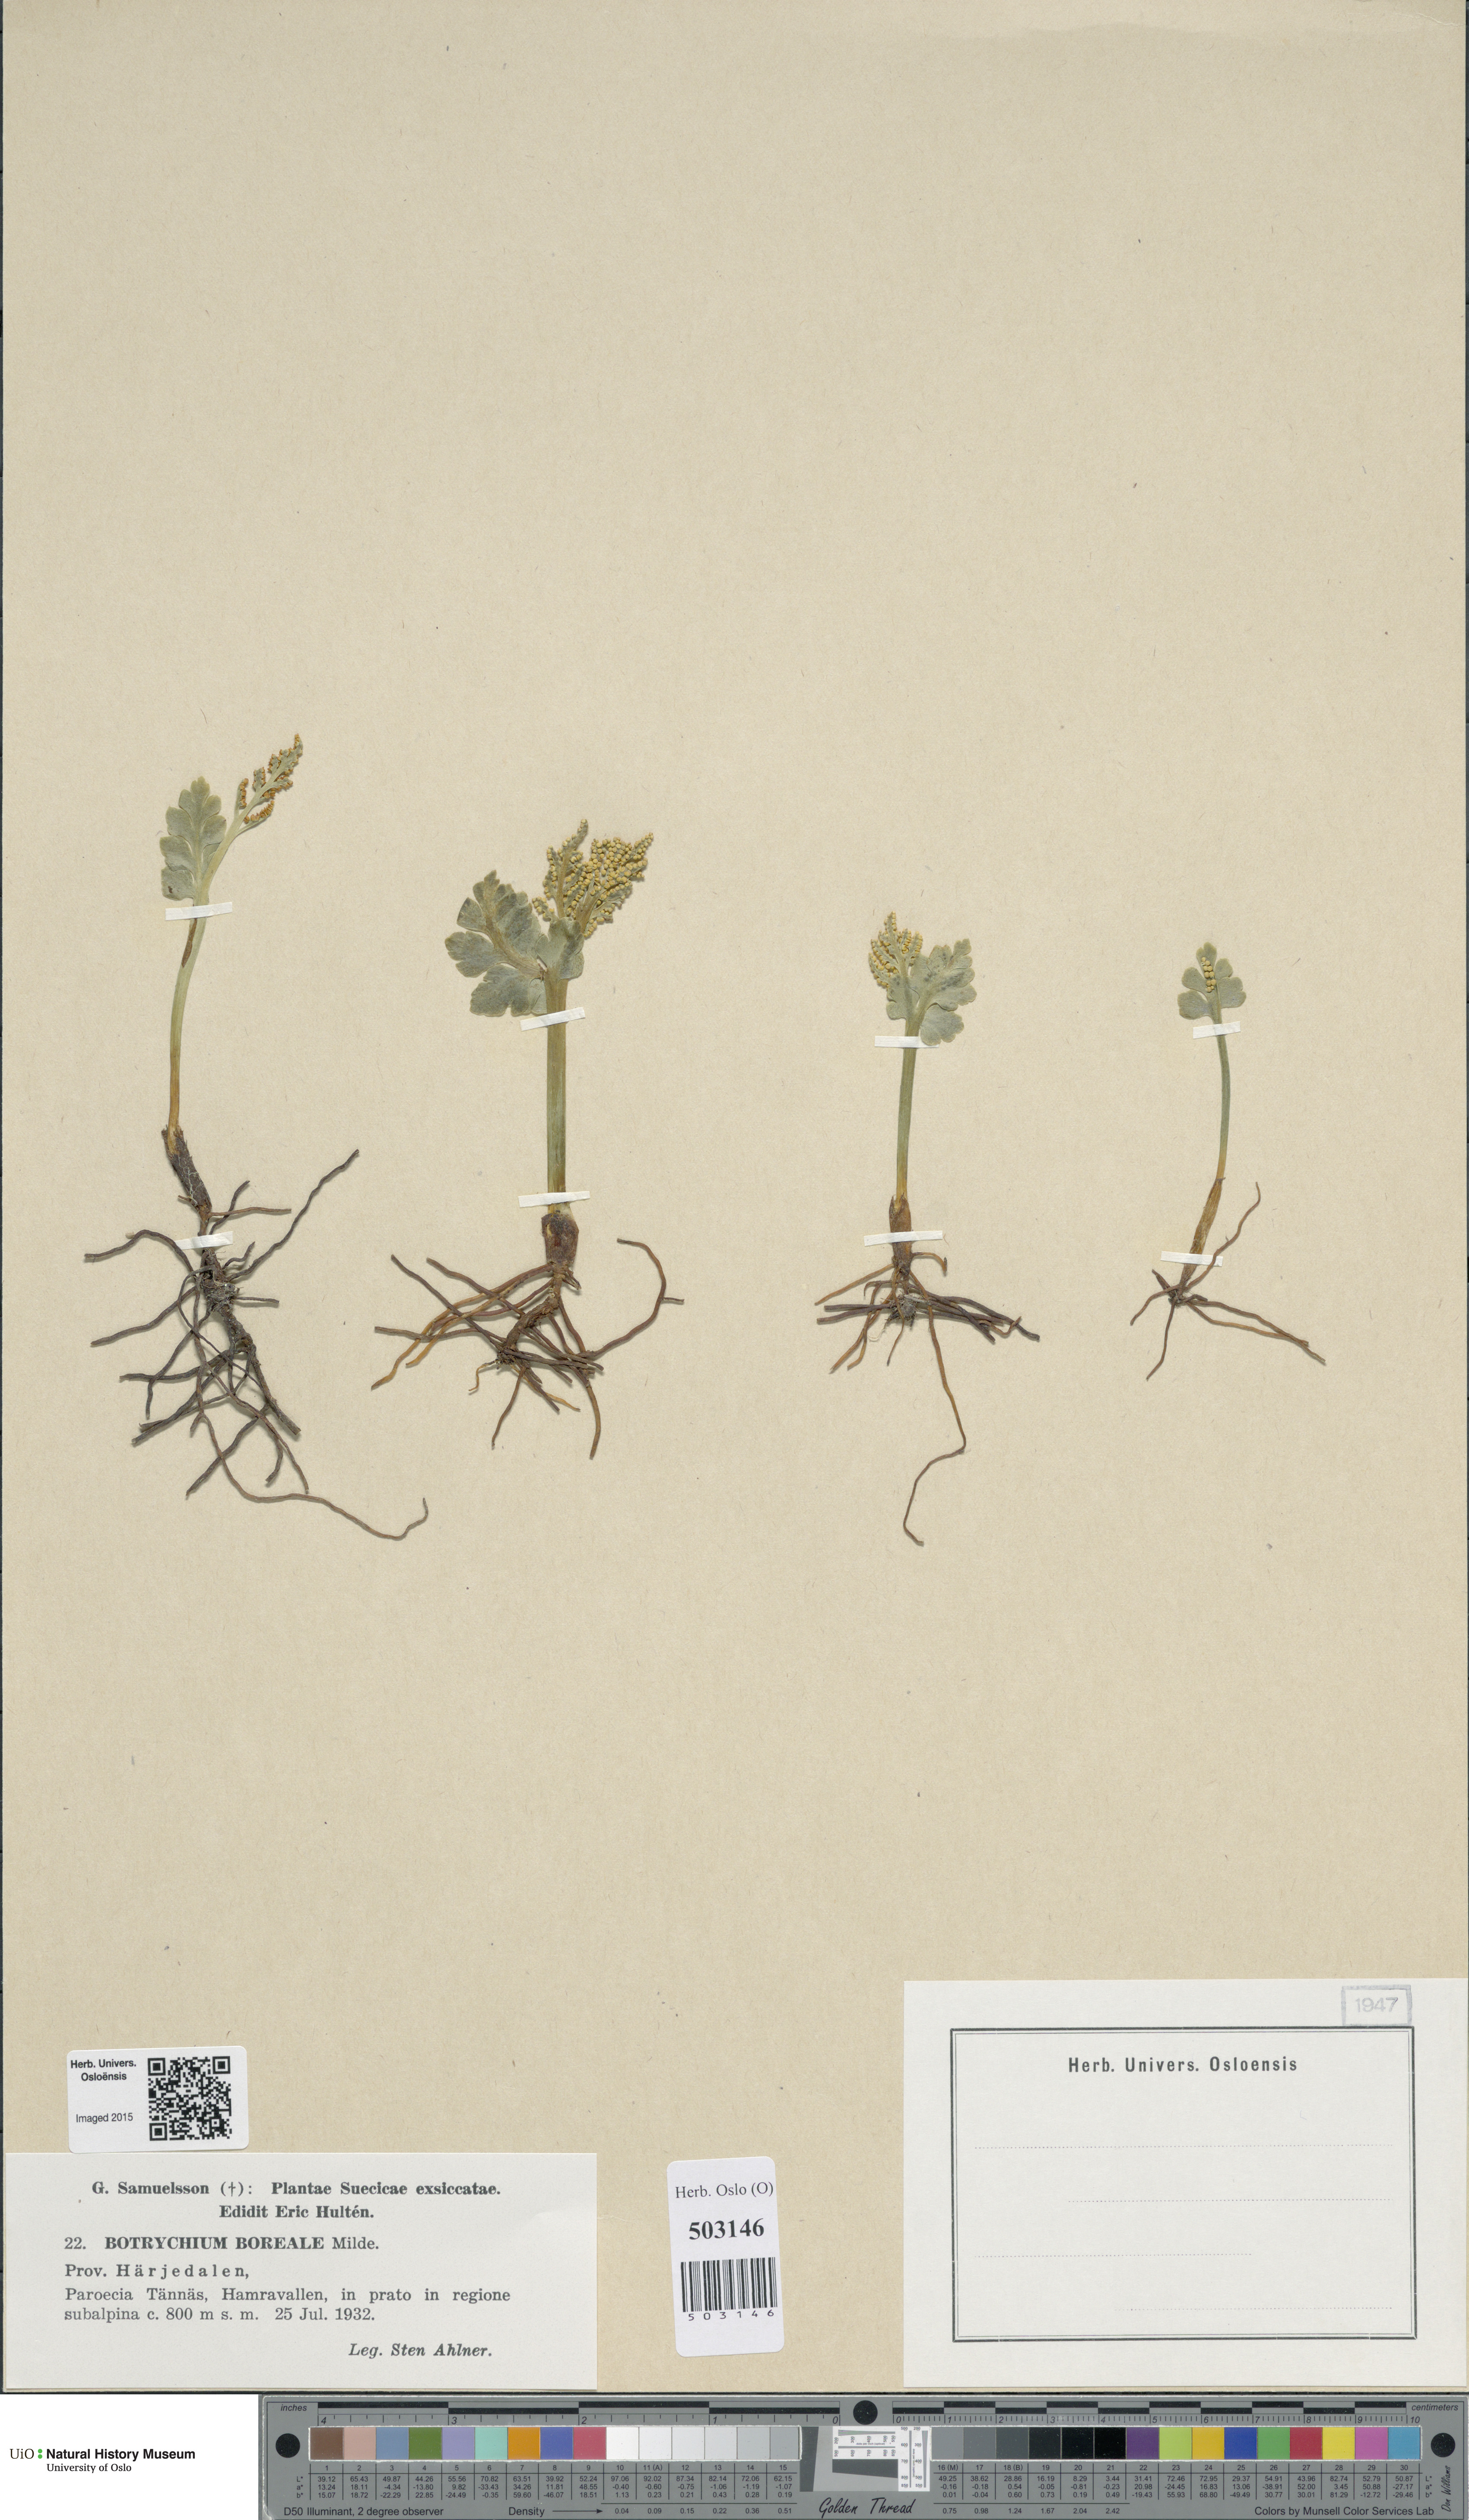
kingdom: Plantae
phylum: Tracheophyta
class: Polypodiopsida
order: Ophioglossales
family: Ophioglossaceae
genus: Botrychium
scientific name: Botrychium boreale
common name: Boreal moonwort
